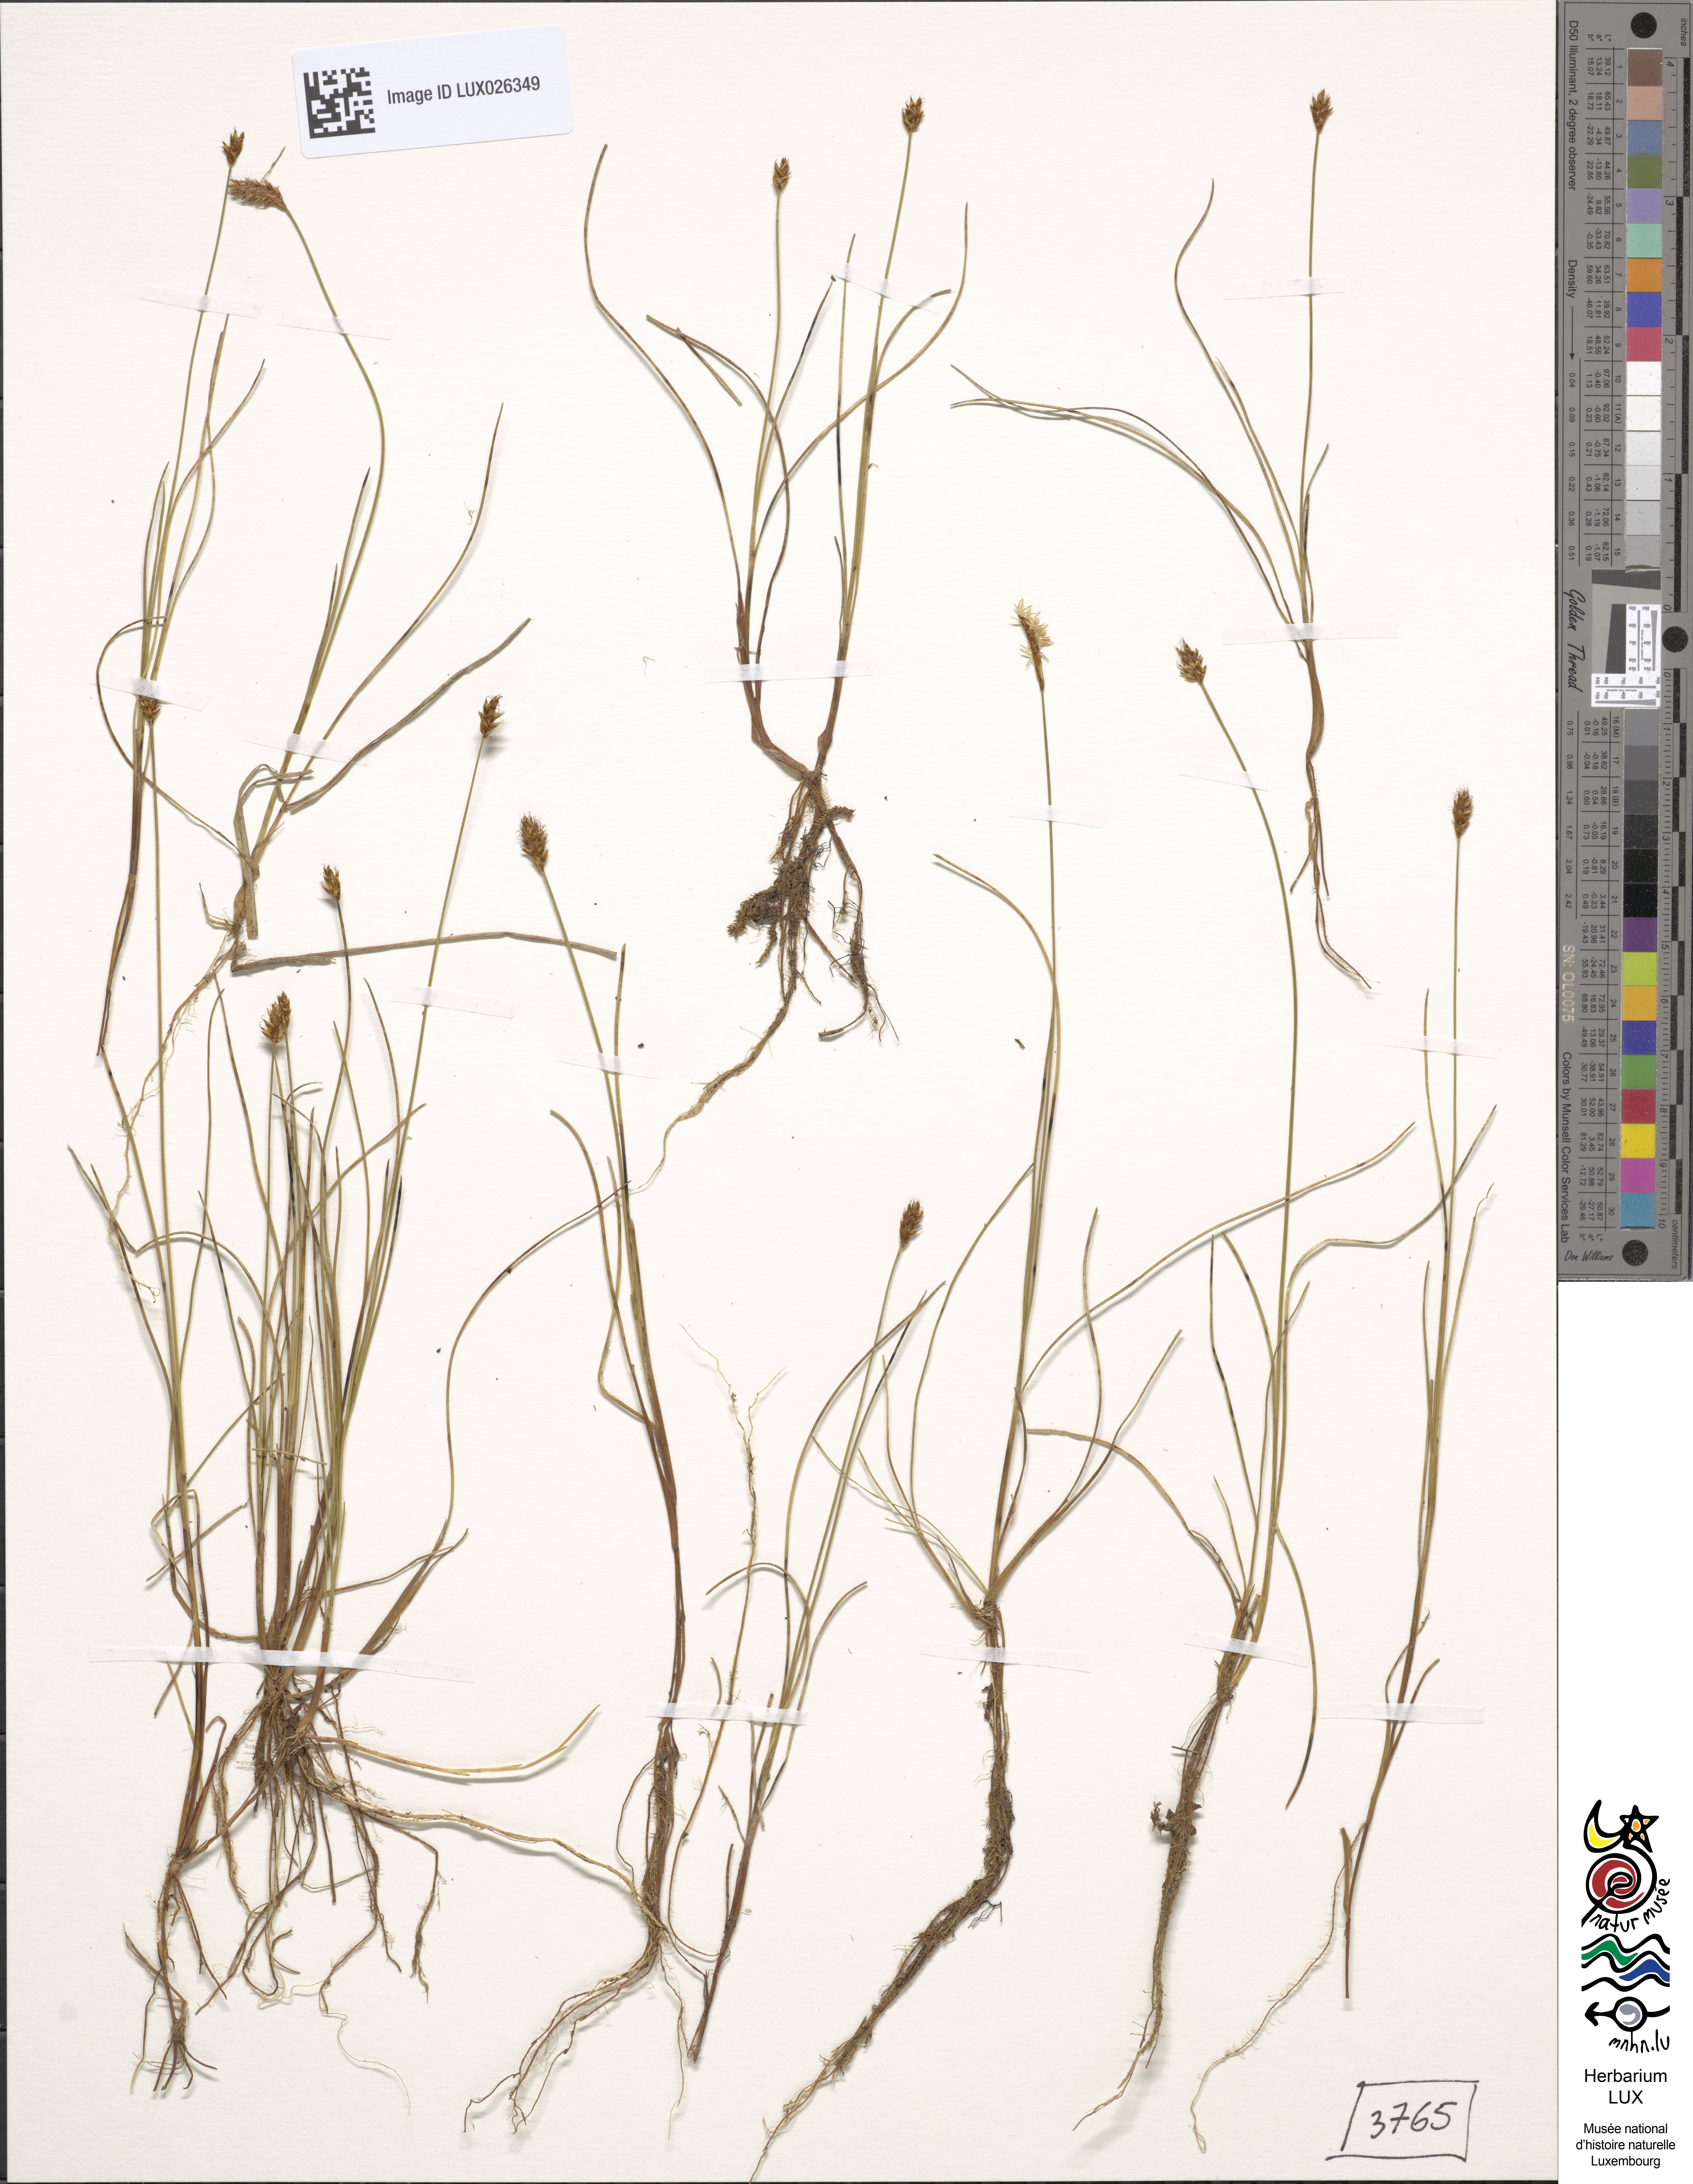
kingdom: Plantae
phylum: Tracheophyta
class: Liliopsida
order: Poales
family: Cyperaceae
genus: Carex
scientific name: Carex dioica
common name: Dioecious sedge
